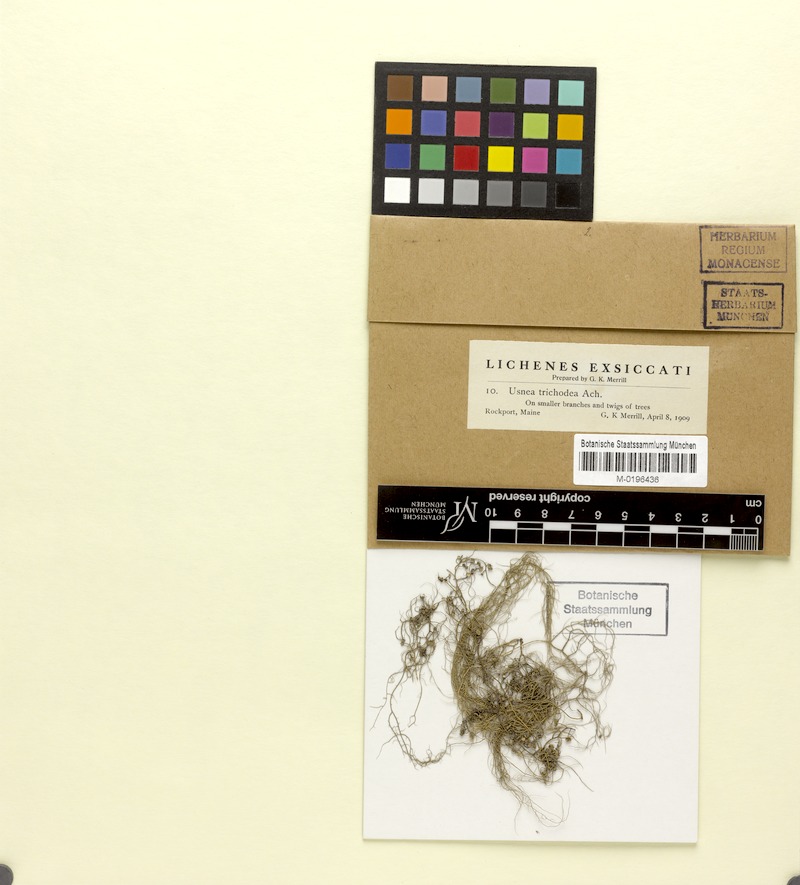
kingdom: Fungi
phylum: Ascomycota
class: Lecanoromycetes
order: Lecanorales
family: Parmeliaceae
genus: Usnea
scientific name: Usnea trichodea
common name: Bony beard lichen
